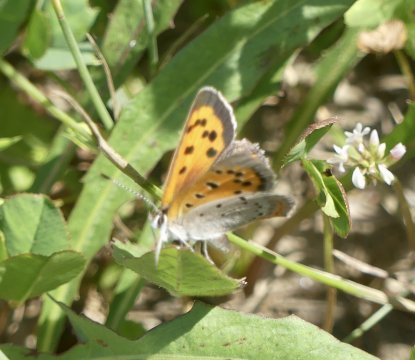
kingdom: Animalia
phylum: Arthropoda
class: Insecta
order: Lepidoptera
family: Lycaenidae
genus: Lycaena
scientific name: Lycaena phlaeas
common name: American Copper
